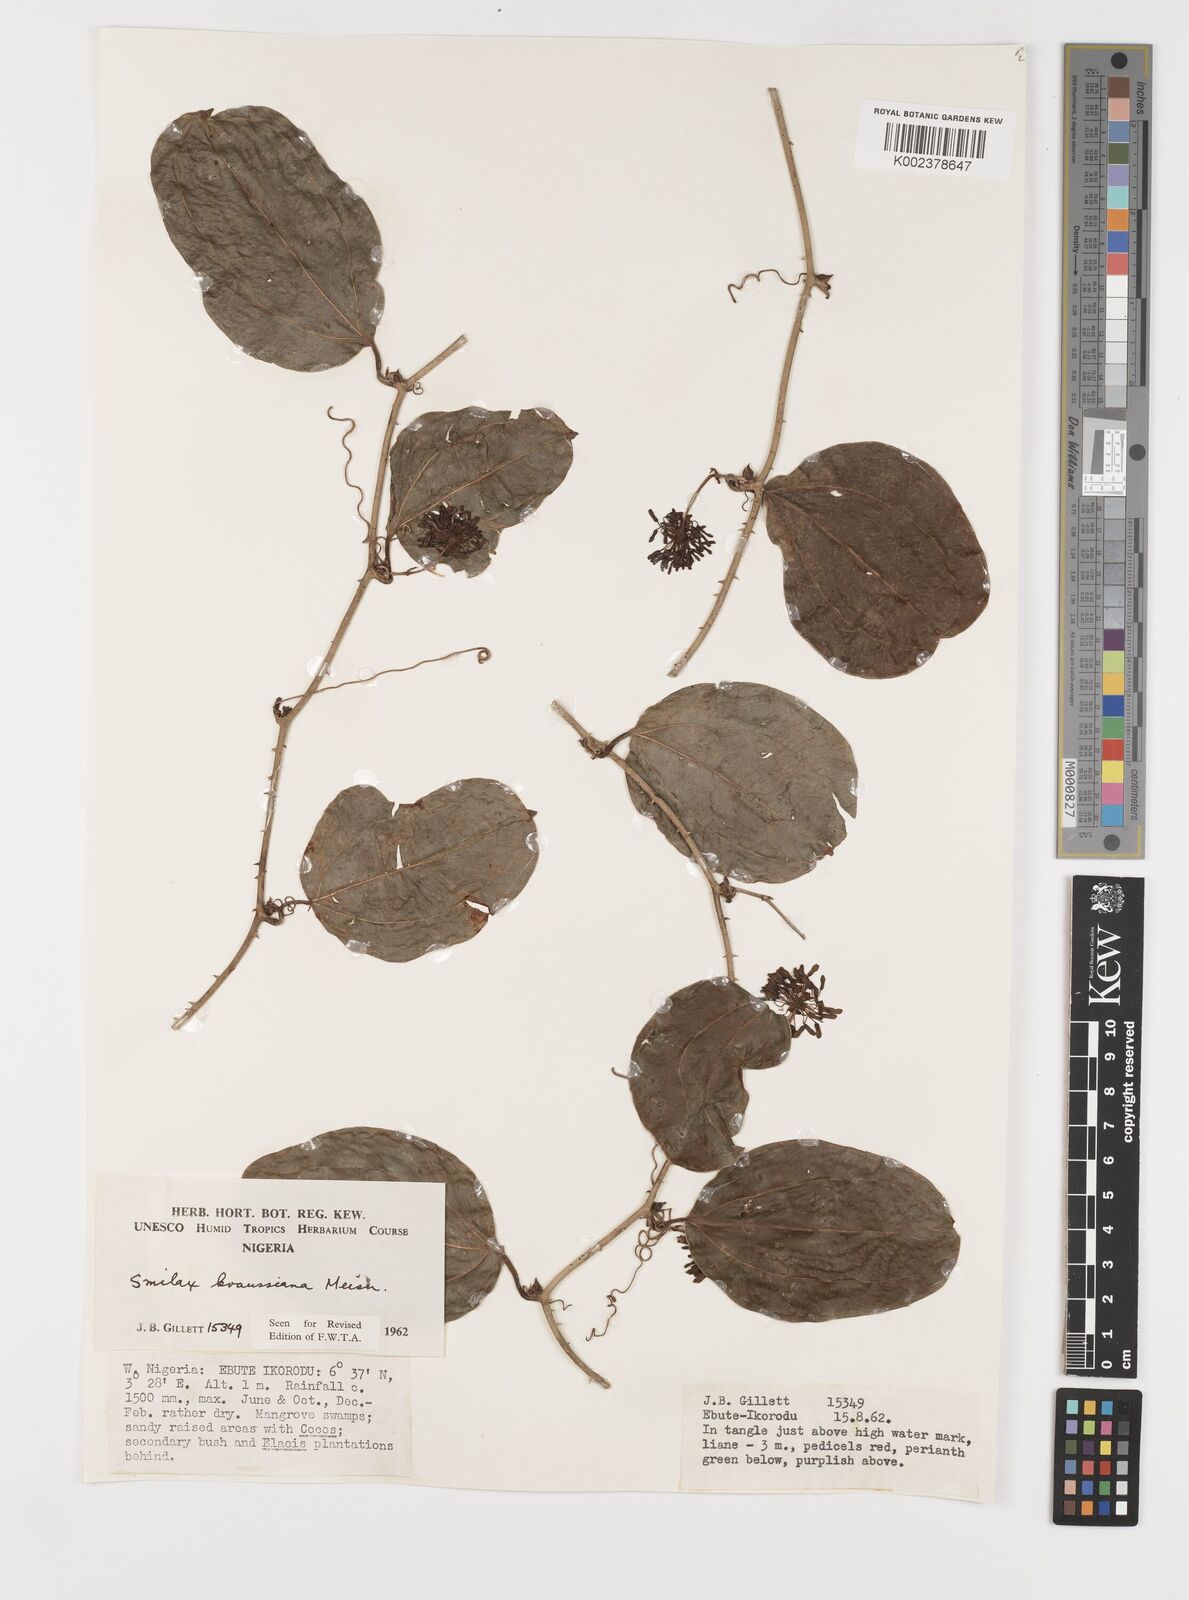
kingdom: Plantae
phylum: Tracheophyta
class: Liliopsida
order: Liliales
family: Smilacaceae
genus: Smilax
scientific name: Smilax anceps
